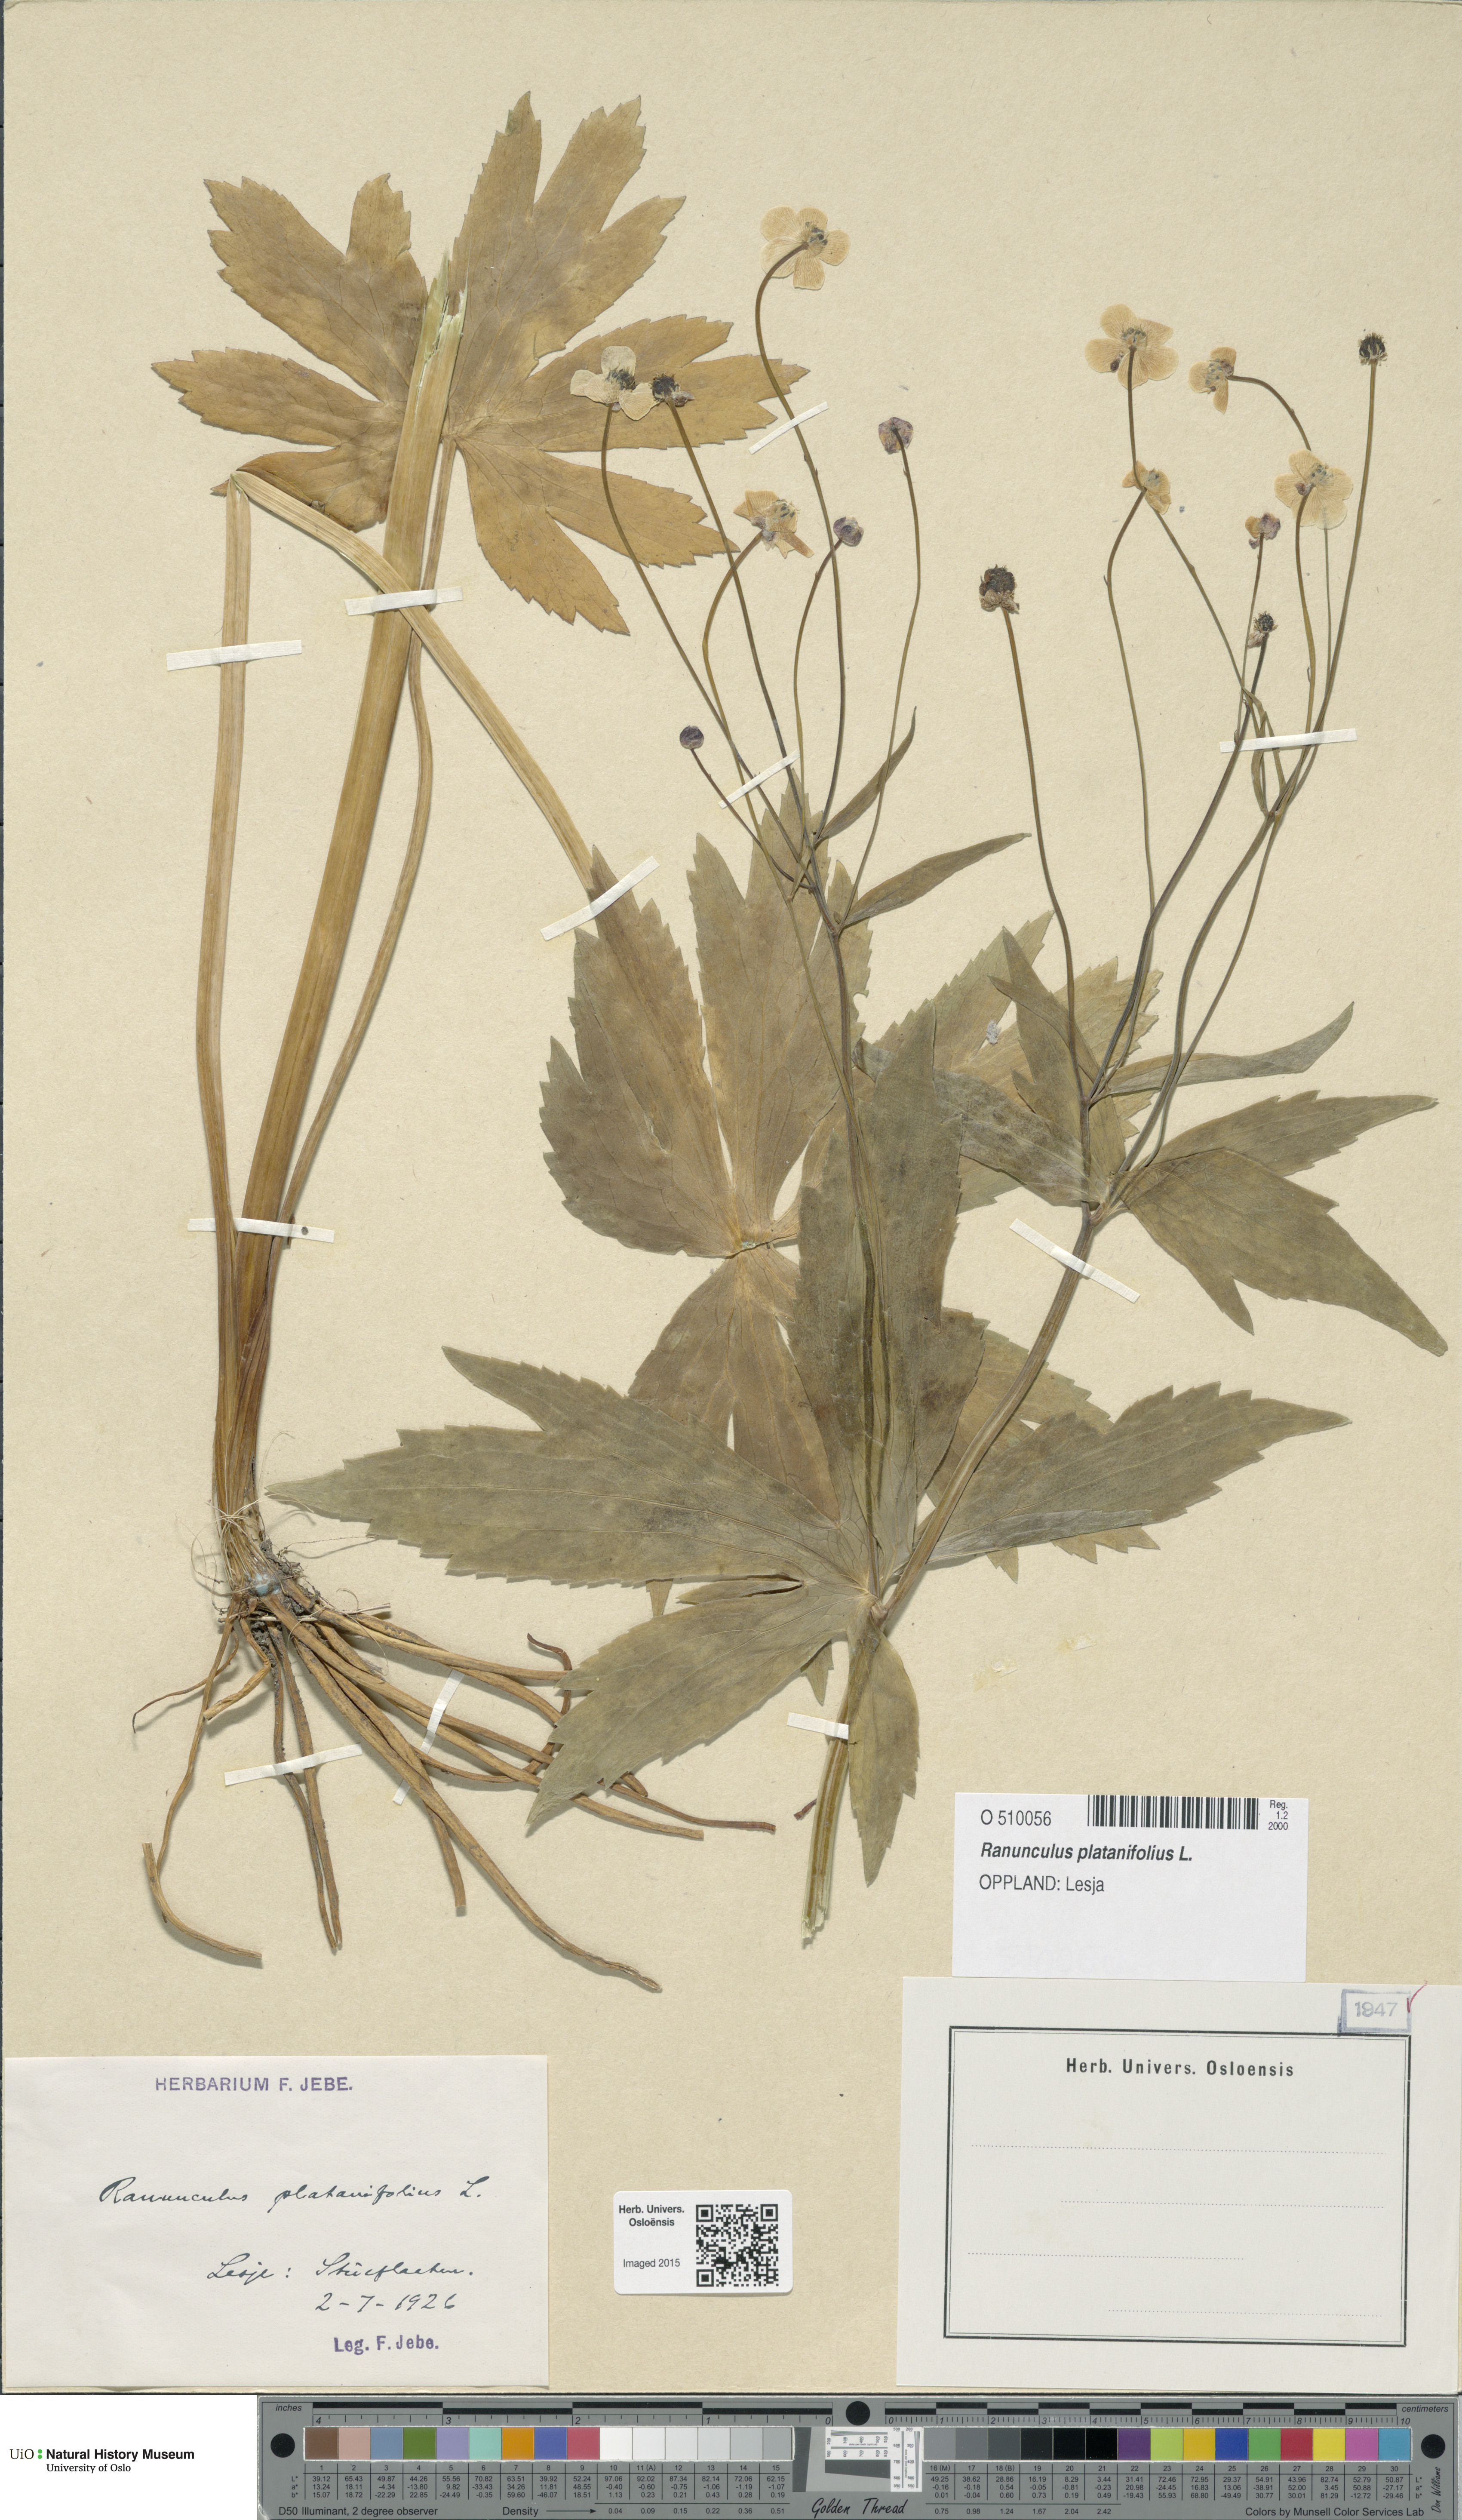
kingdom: Plantae
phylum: Tracheophyta
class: Magnoliopsida
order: Ranunculales
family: Ranunculaceae
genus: Ranunculus
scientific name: Ranunculus platanifolius
